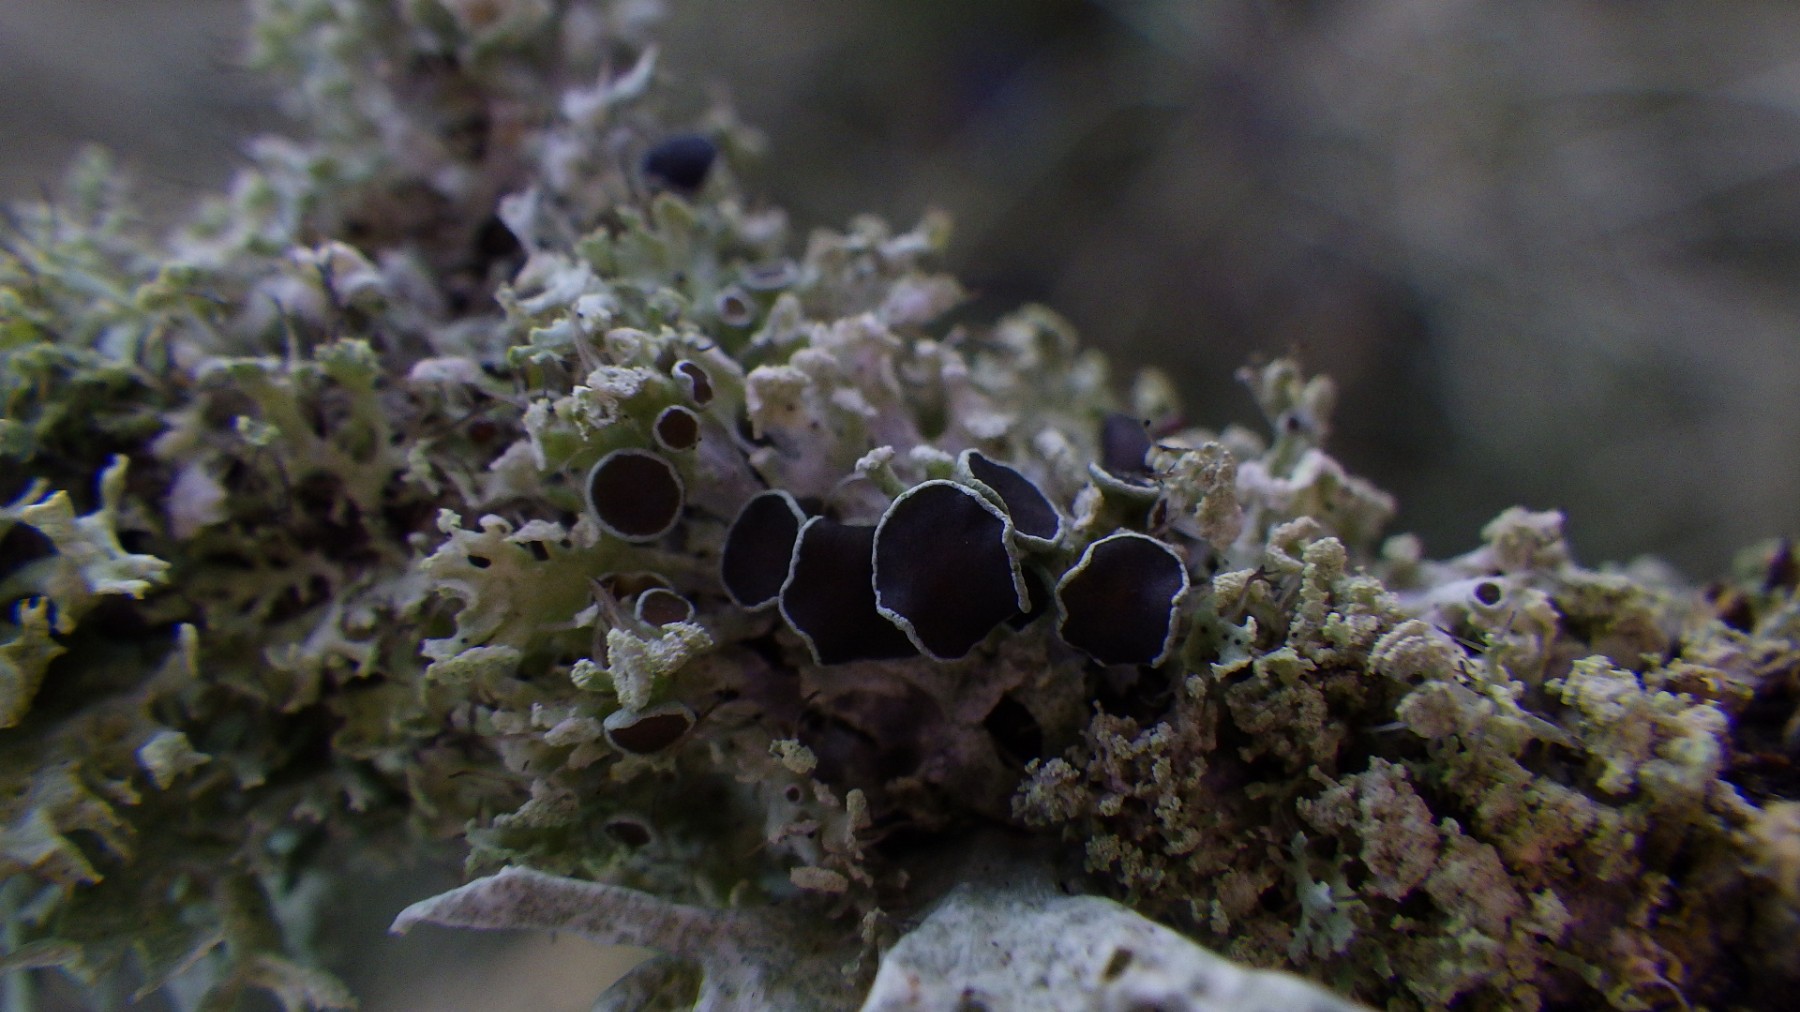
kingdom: Fungi
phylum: Ascomycota
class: Lecanoromycetes
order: Caliciales
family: Physciaceae
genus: Physcia
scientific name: Physcia tenella
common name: spæd rosetlav
